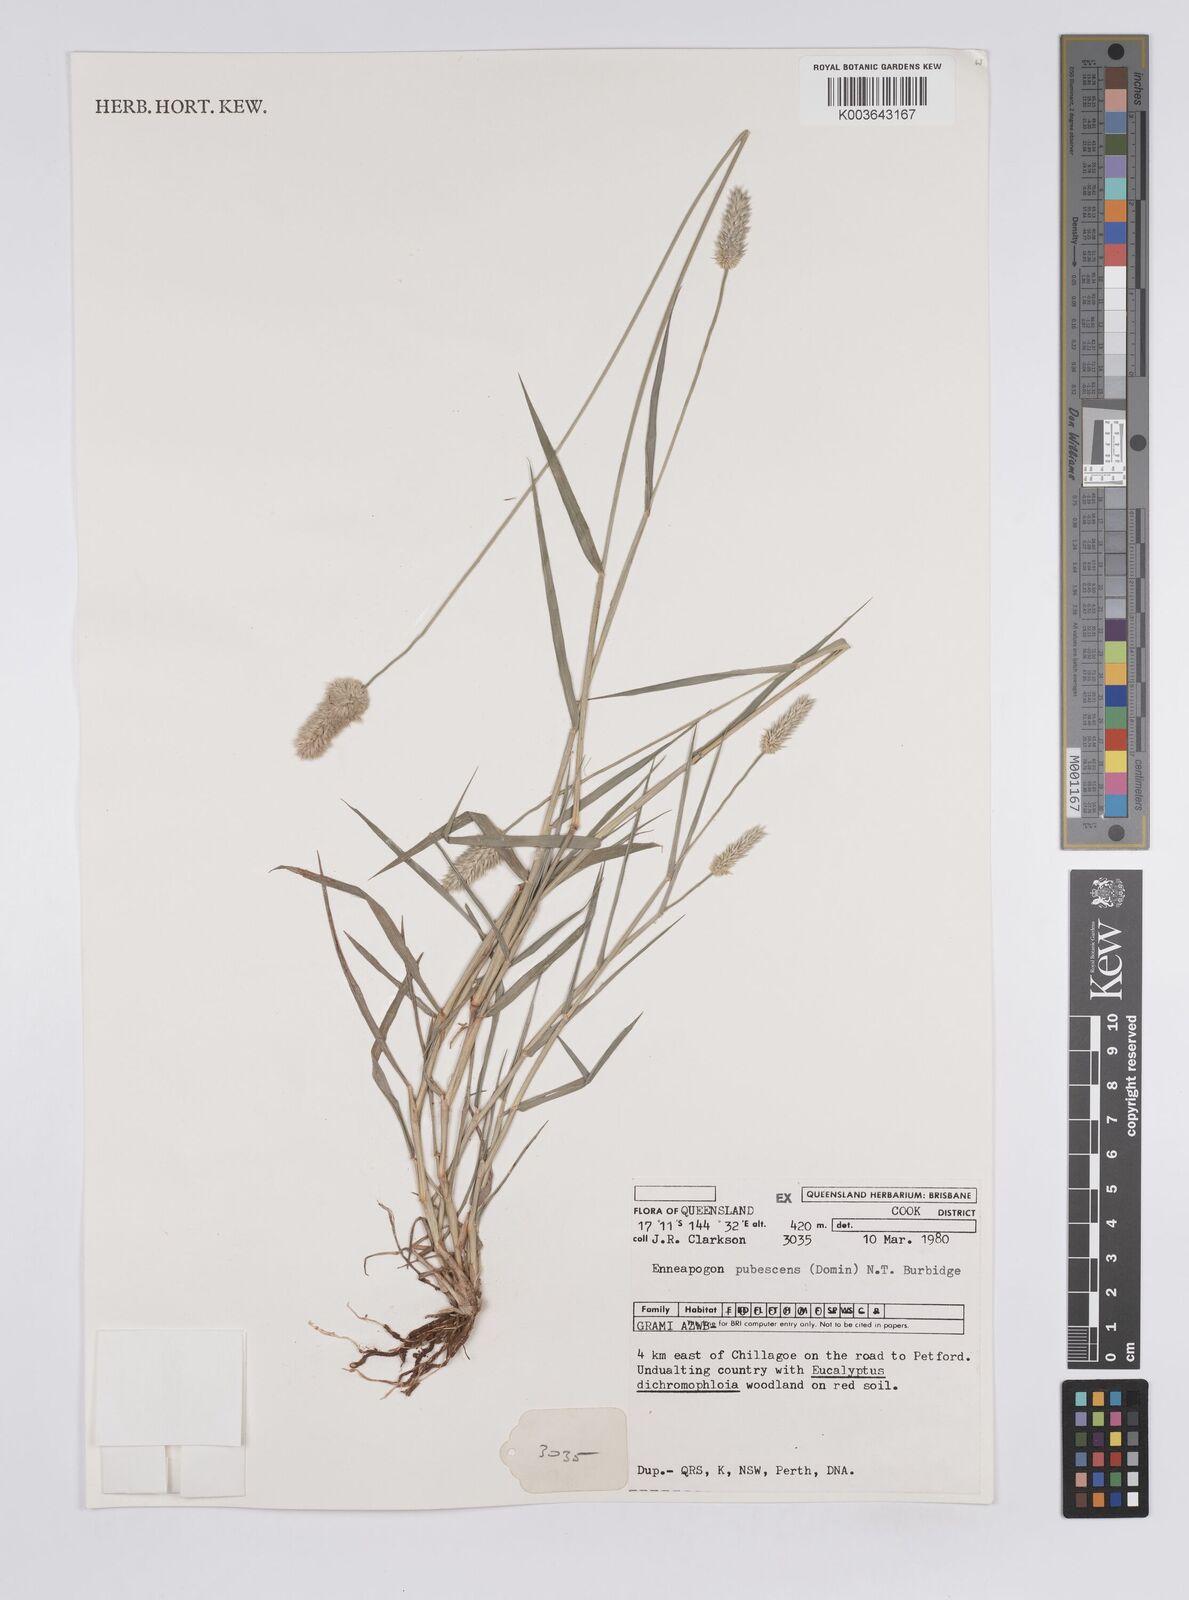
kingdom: Plantae
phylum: Tracheophyta
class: Liliopsida
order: Poales
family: Poaceae
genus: Enneapogon
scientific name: Enneapogon lindleyanus
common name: Conetop nineawn
